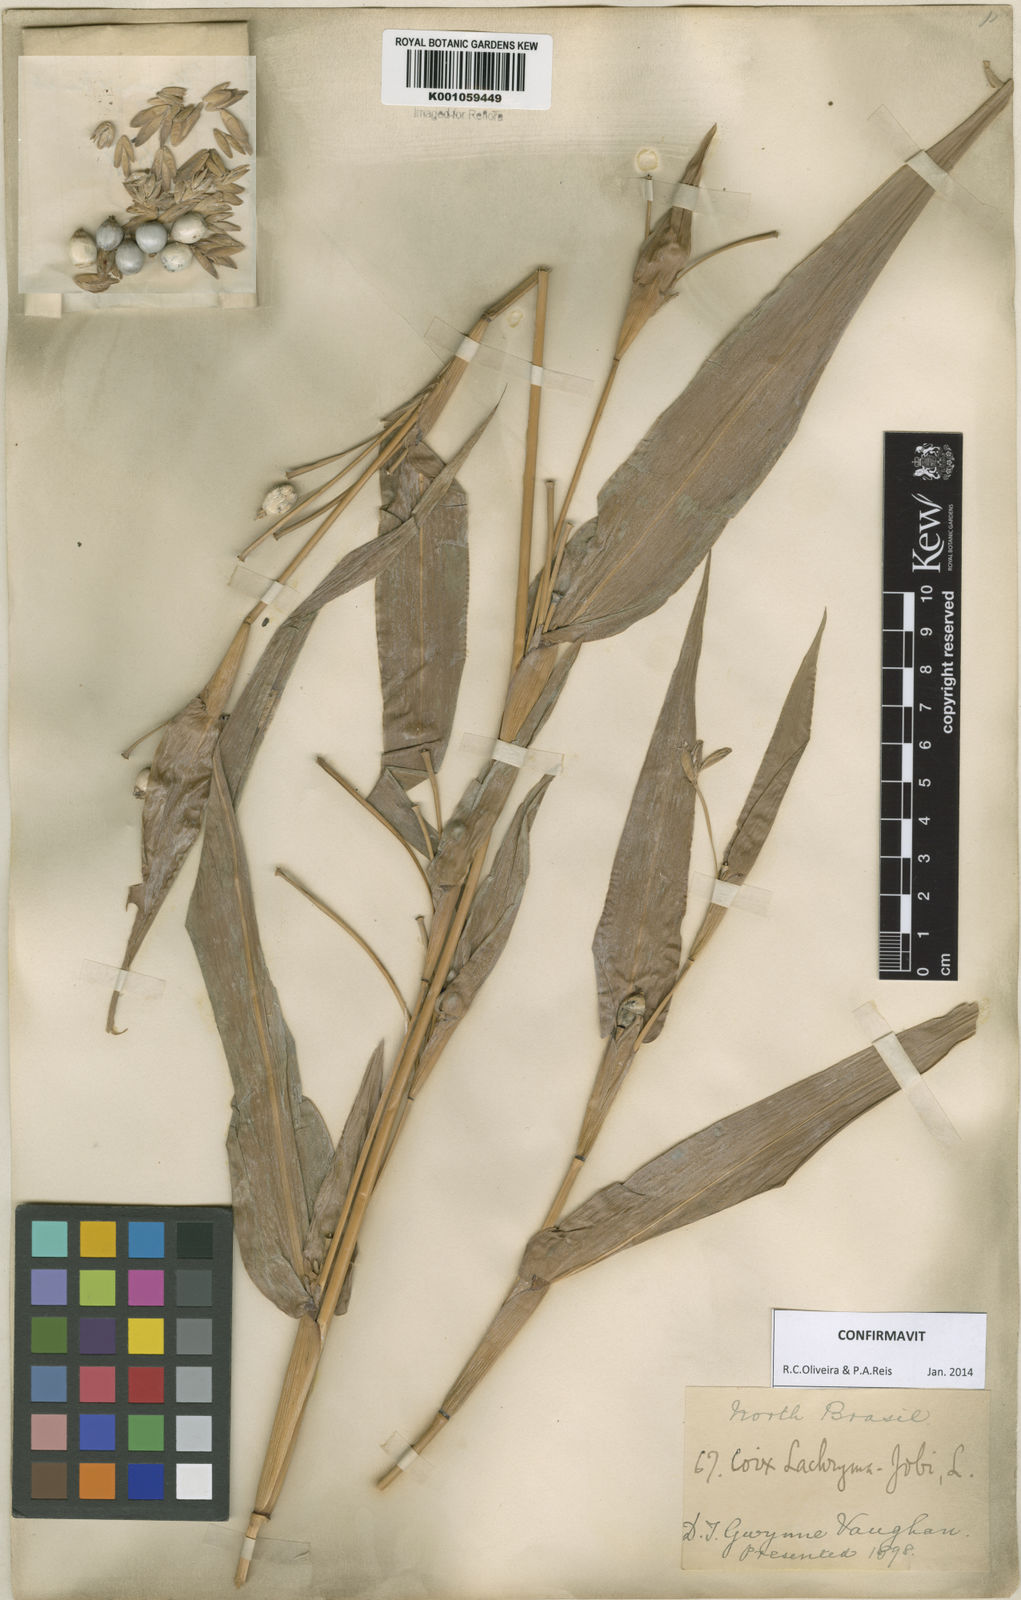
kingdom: Plantae
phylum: Tracheophyta
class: Liliopsida
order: Poales
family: Poaceae
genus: Coix
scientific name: Coix lacryma-jobi
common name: Job's tears
